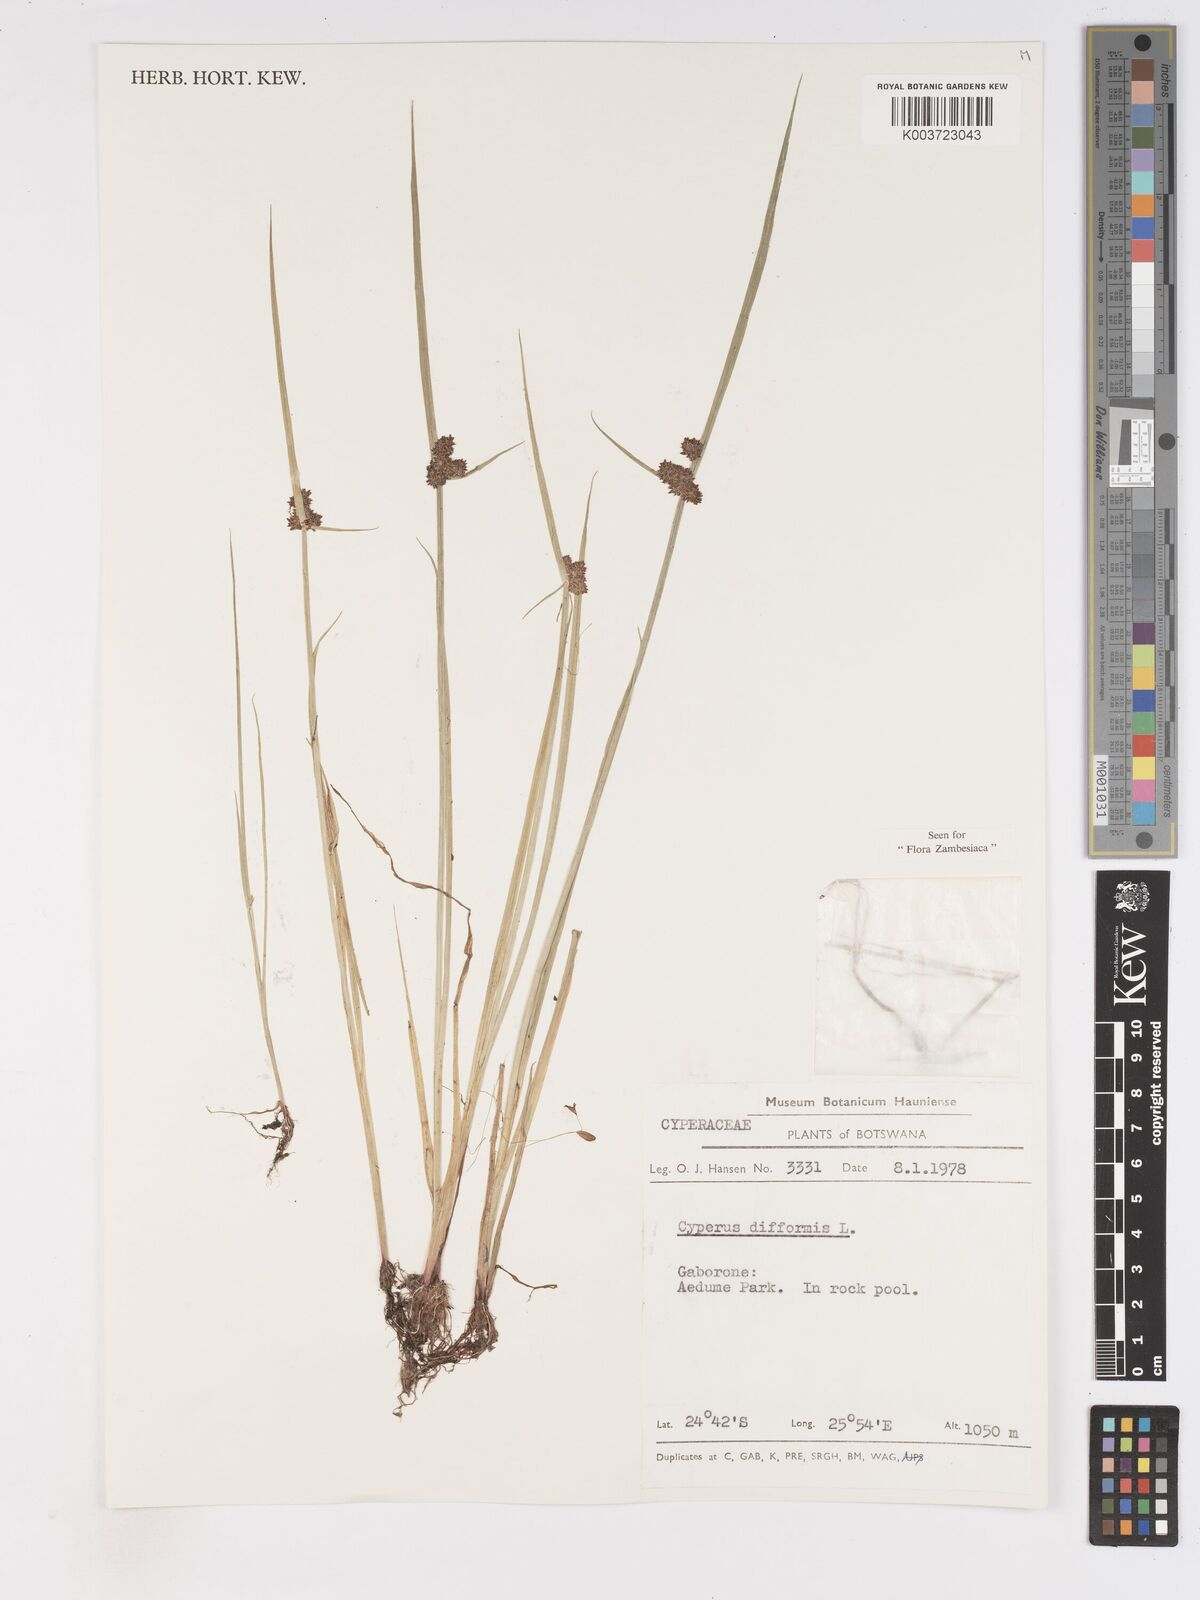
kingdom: Plantae
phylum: Tracheophyta
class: Liliopsida
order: Poales
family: Cyperaceae
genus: Cyperus
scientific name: Cyperus difformis
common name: Variable flatsedge
